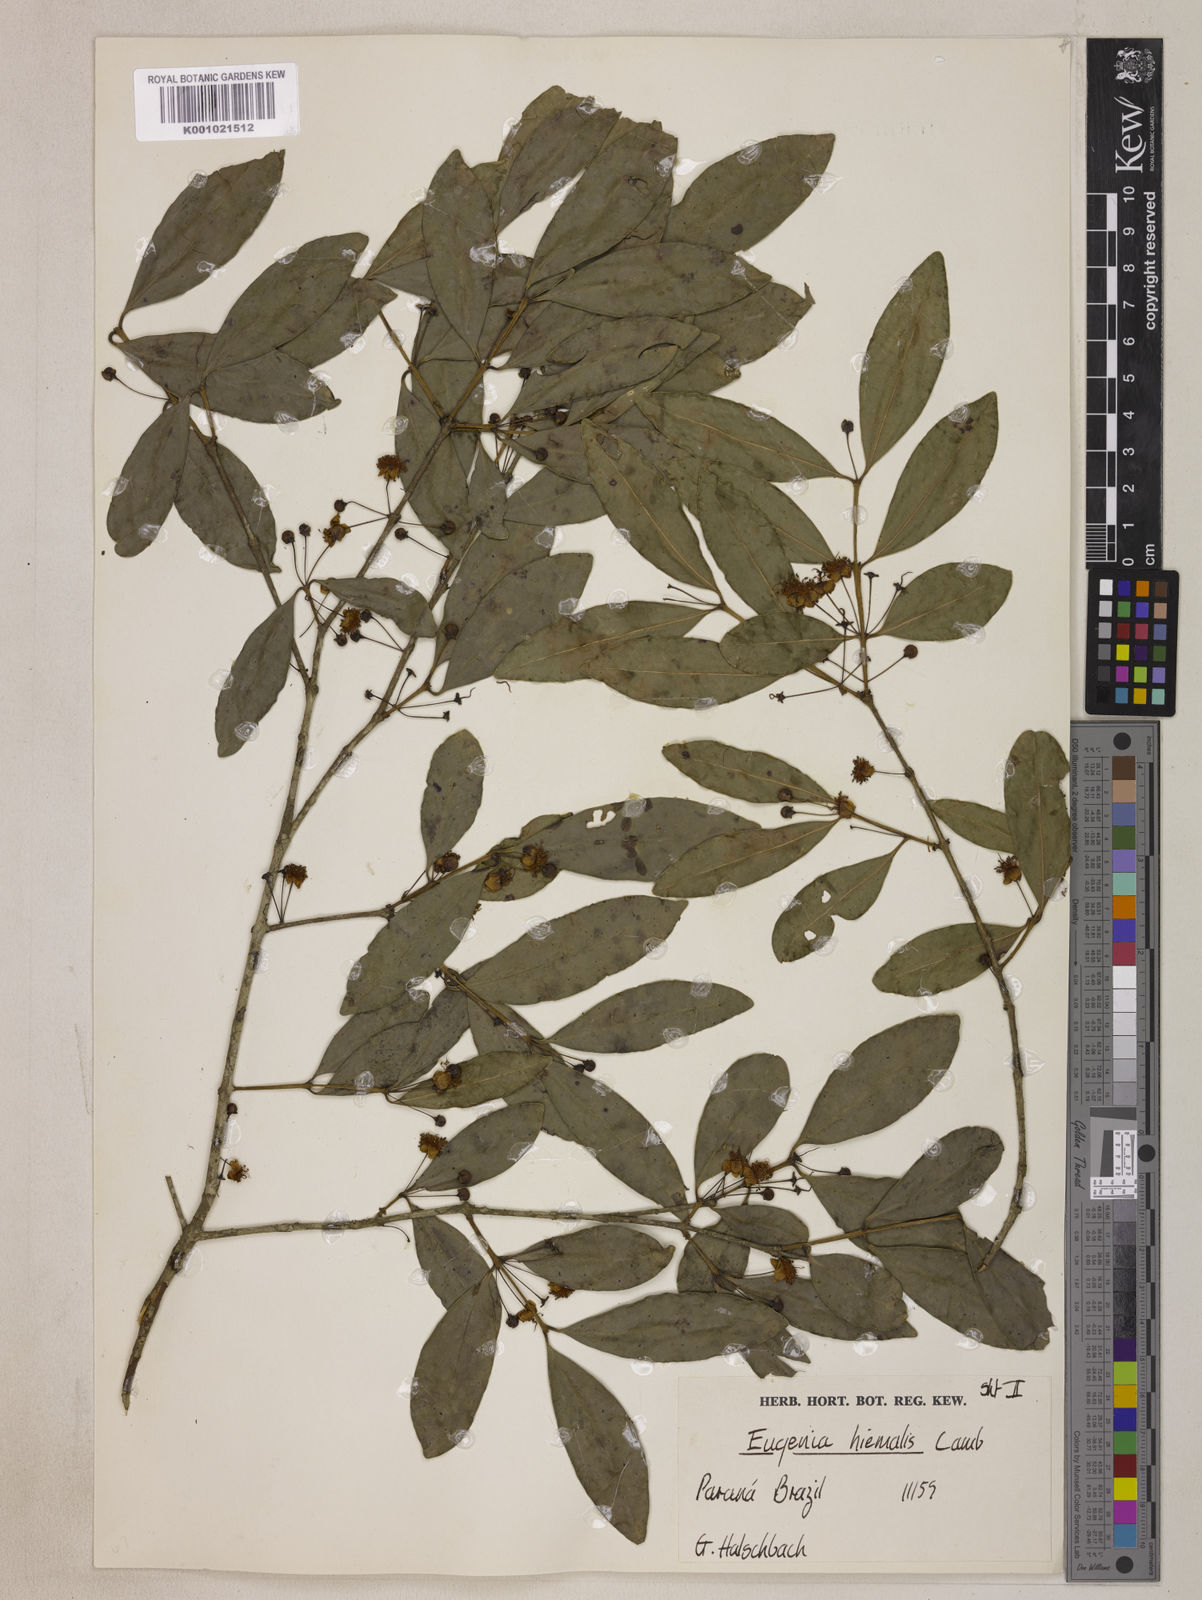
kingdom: Plantae
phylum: Tracheophyta
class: Magnoliopsida
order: Myrtales
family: Myrtaceae
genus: Eugenia
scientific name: Eugenia hiemalis
